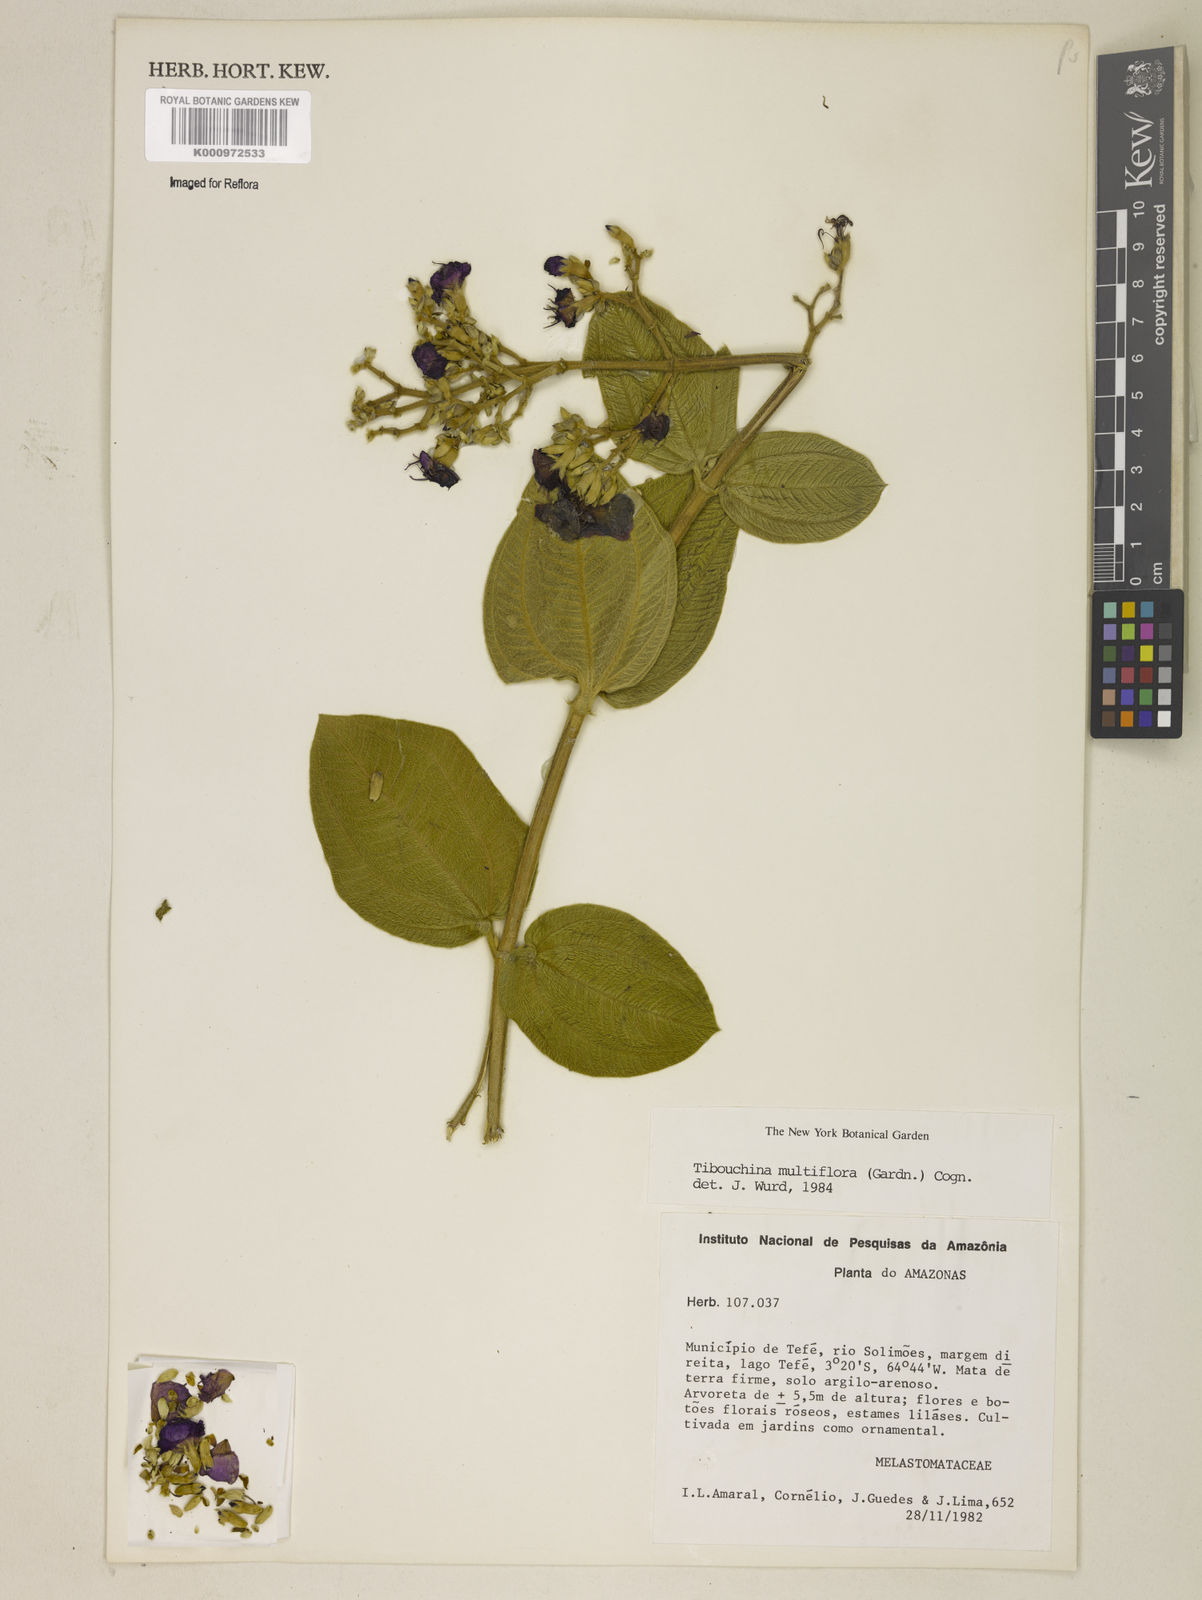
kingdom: Plantae
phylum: Tracheophyta
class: Magnoliopsida
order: Myrtales
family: Melastomataceae
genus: Pleroma
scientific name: Pleroma heteromallum
